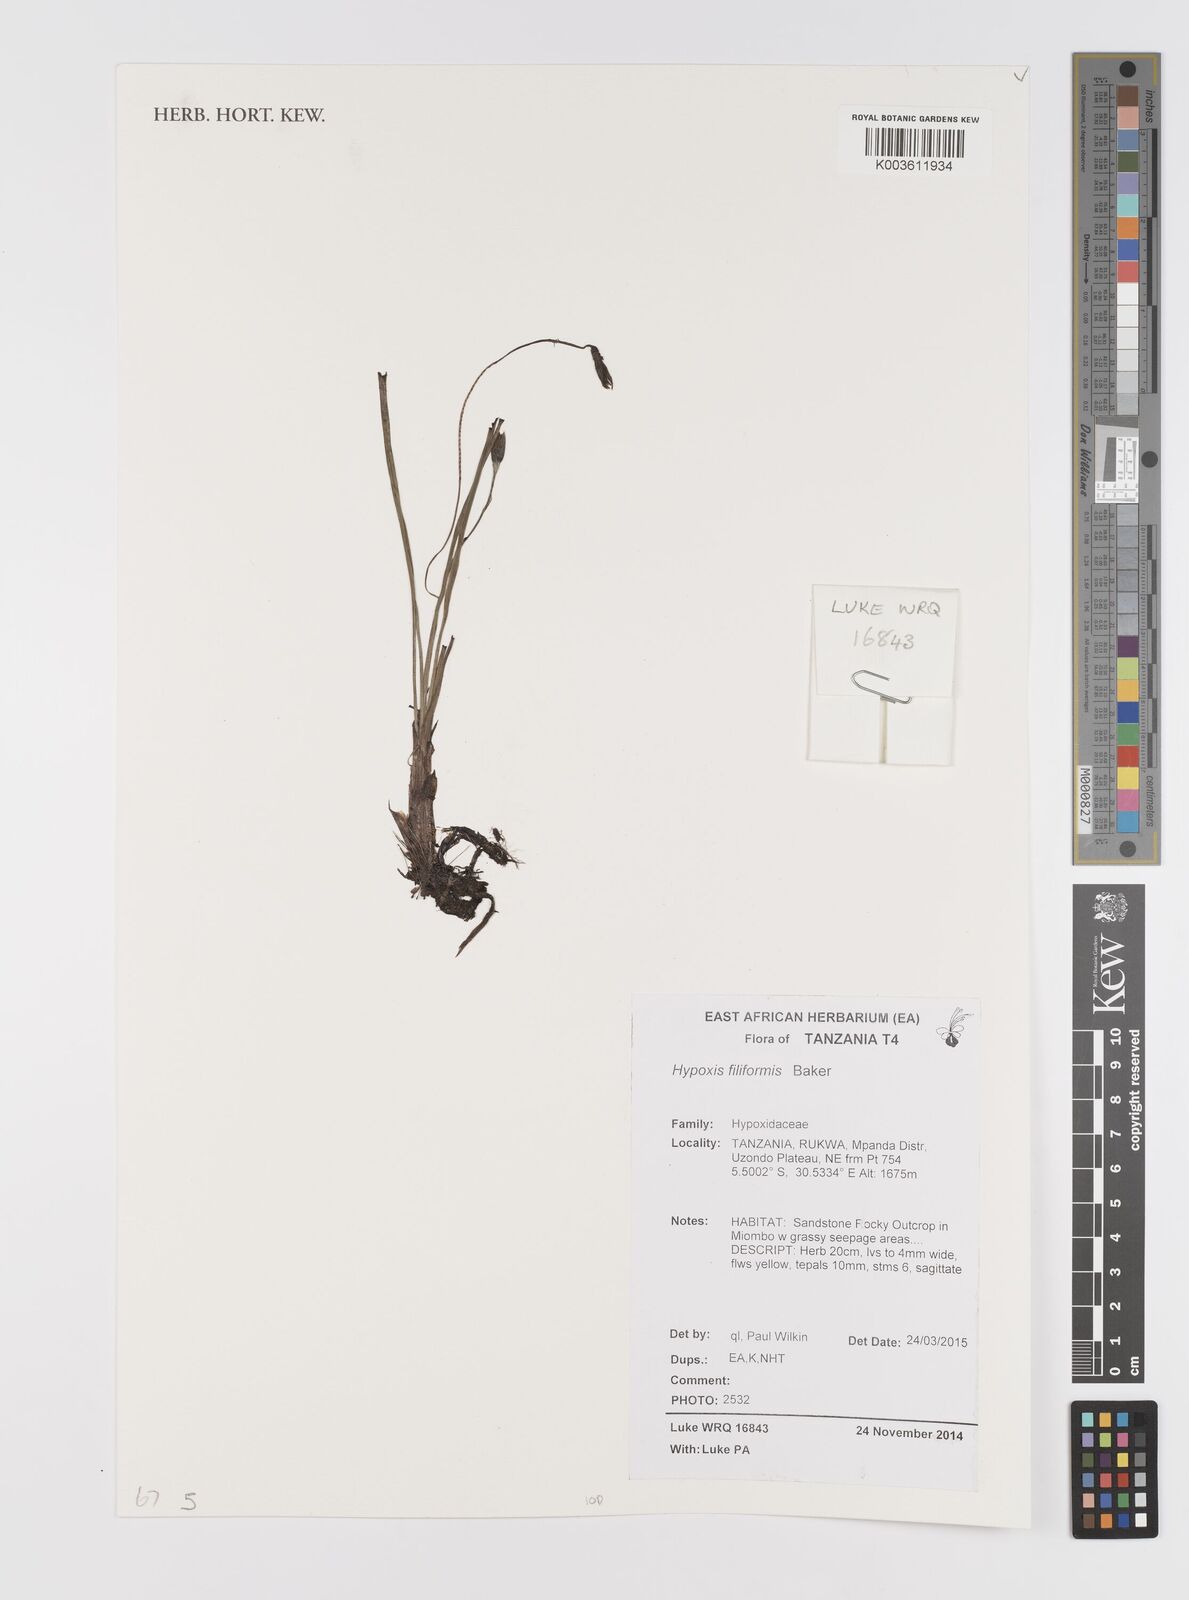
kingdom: Plantae
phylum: Tracheophyta
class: Liliopsida
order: Asparagales
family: Hypoxidaceae
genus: Hypoxis
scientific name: Hypoxis filiformis
